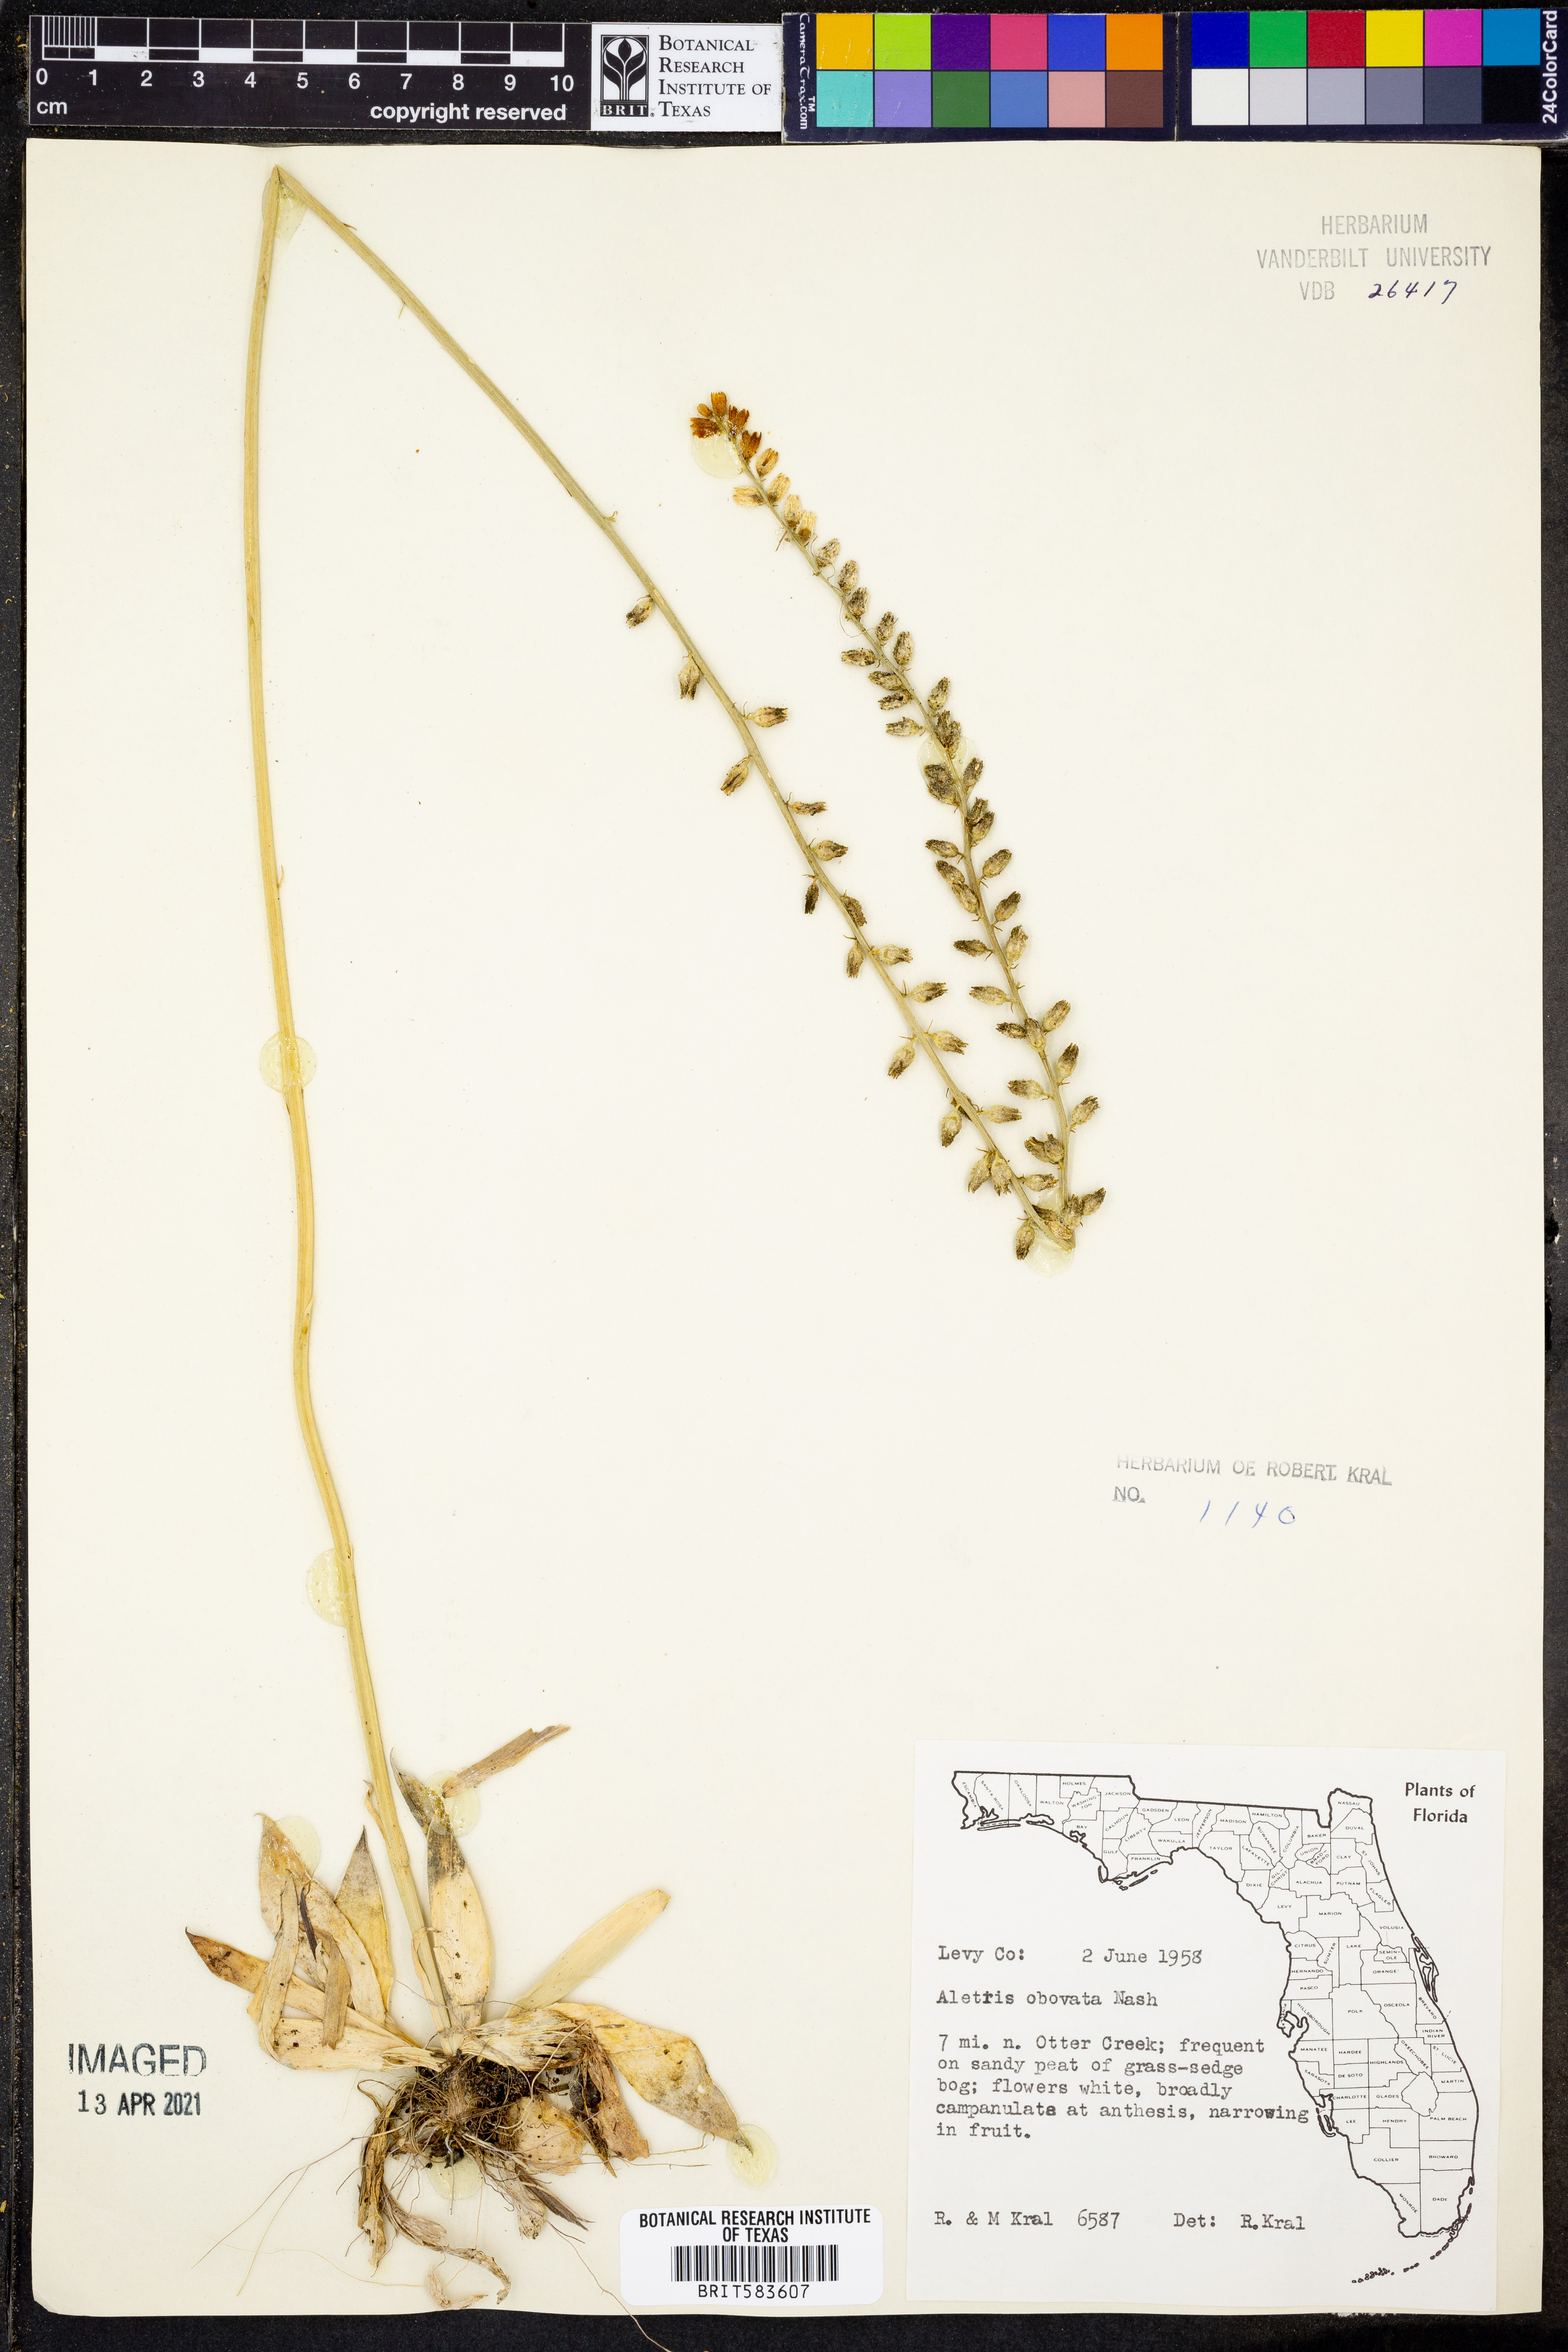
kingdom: Plantae
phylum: Tracheophyta
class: Liliopsida
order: Dioscoreales
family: Nartheciaceae
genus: Aletris
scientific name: Aletris obovata
